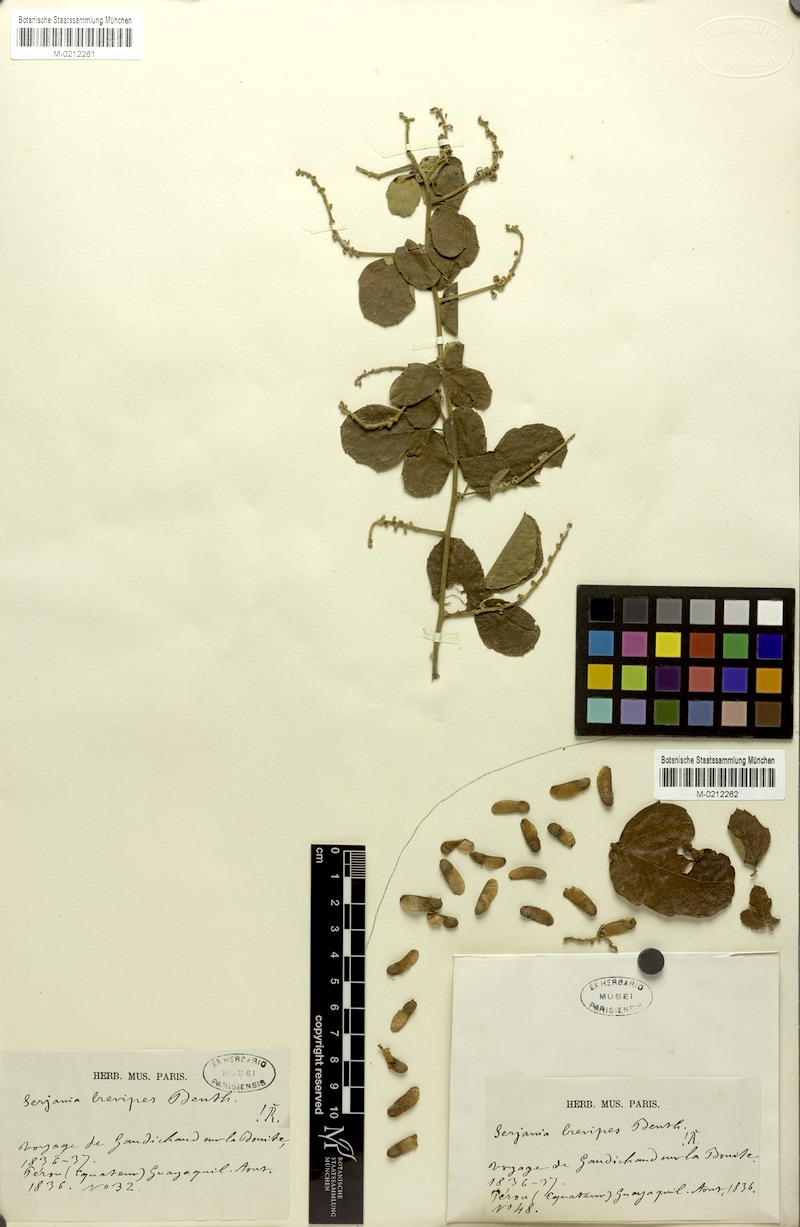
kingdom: Plantae
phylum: Tracheophyta
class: Magnoliopsida
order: Sapindales
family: Sapindaceae
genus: Serjania
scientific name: Serjania brevipes
